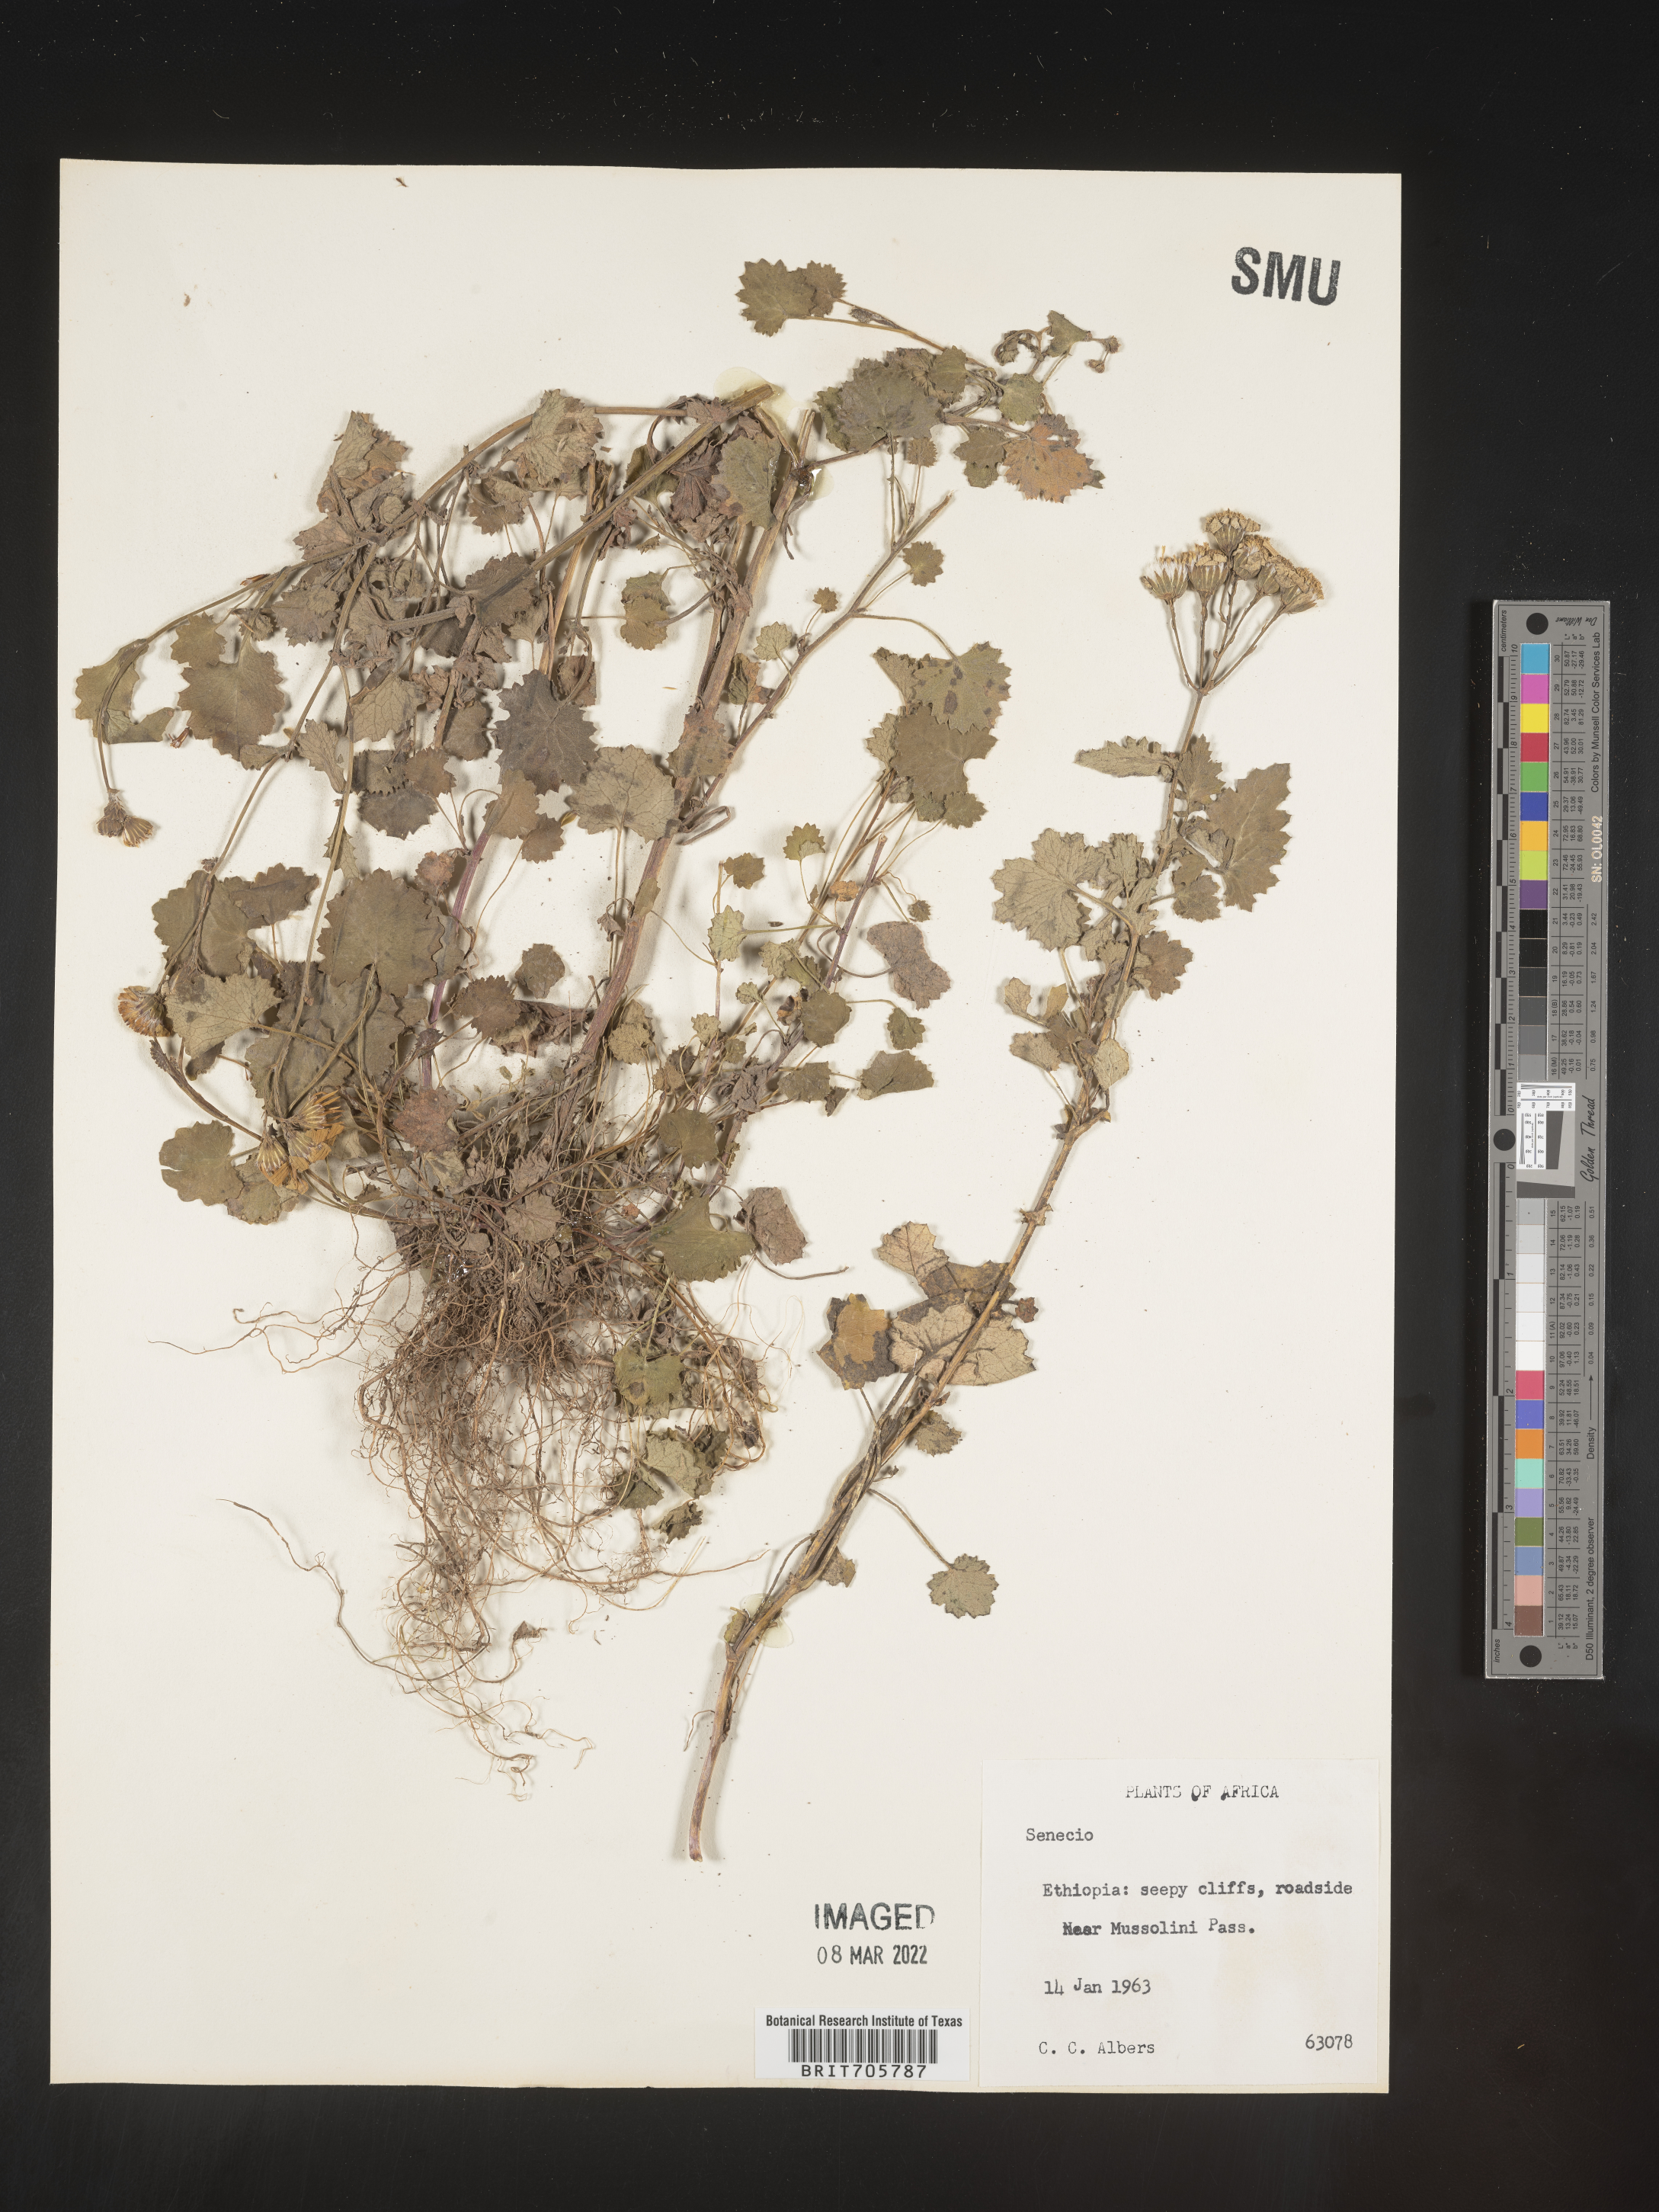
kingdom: Plantae
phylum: Tracheophyta
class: Magnoliopsida
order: Asterales
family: Asteraceae
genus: Senecio
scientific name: Senecio
